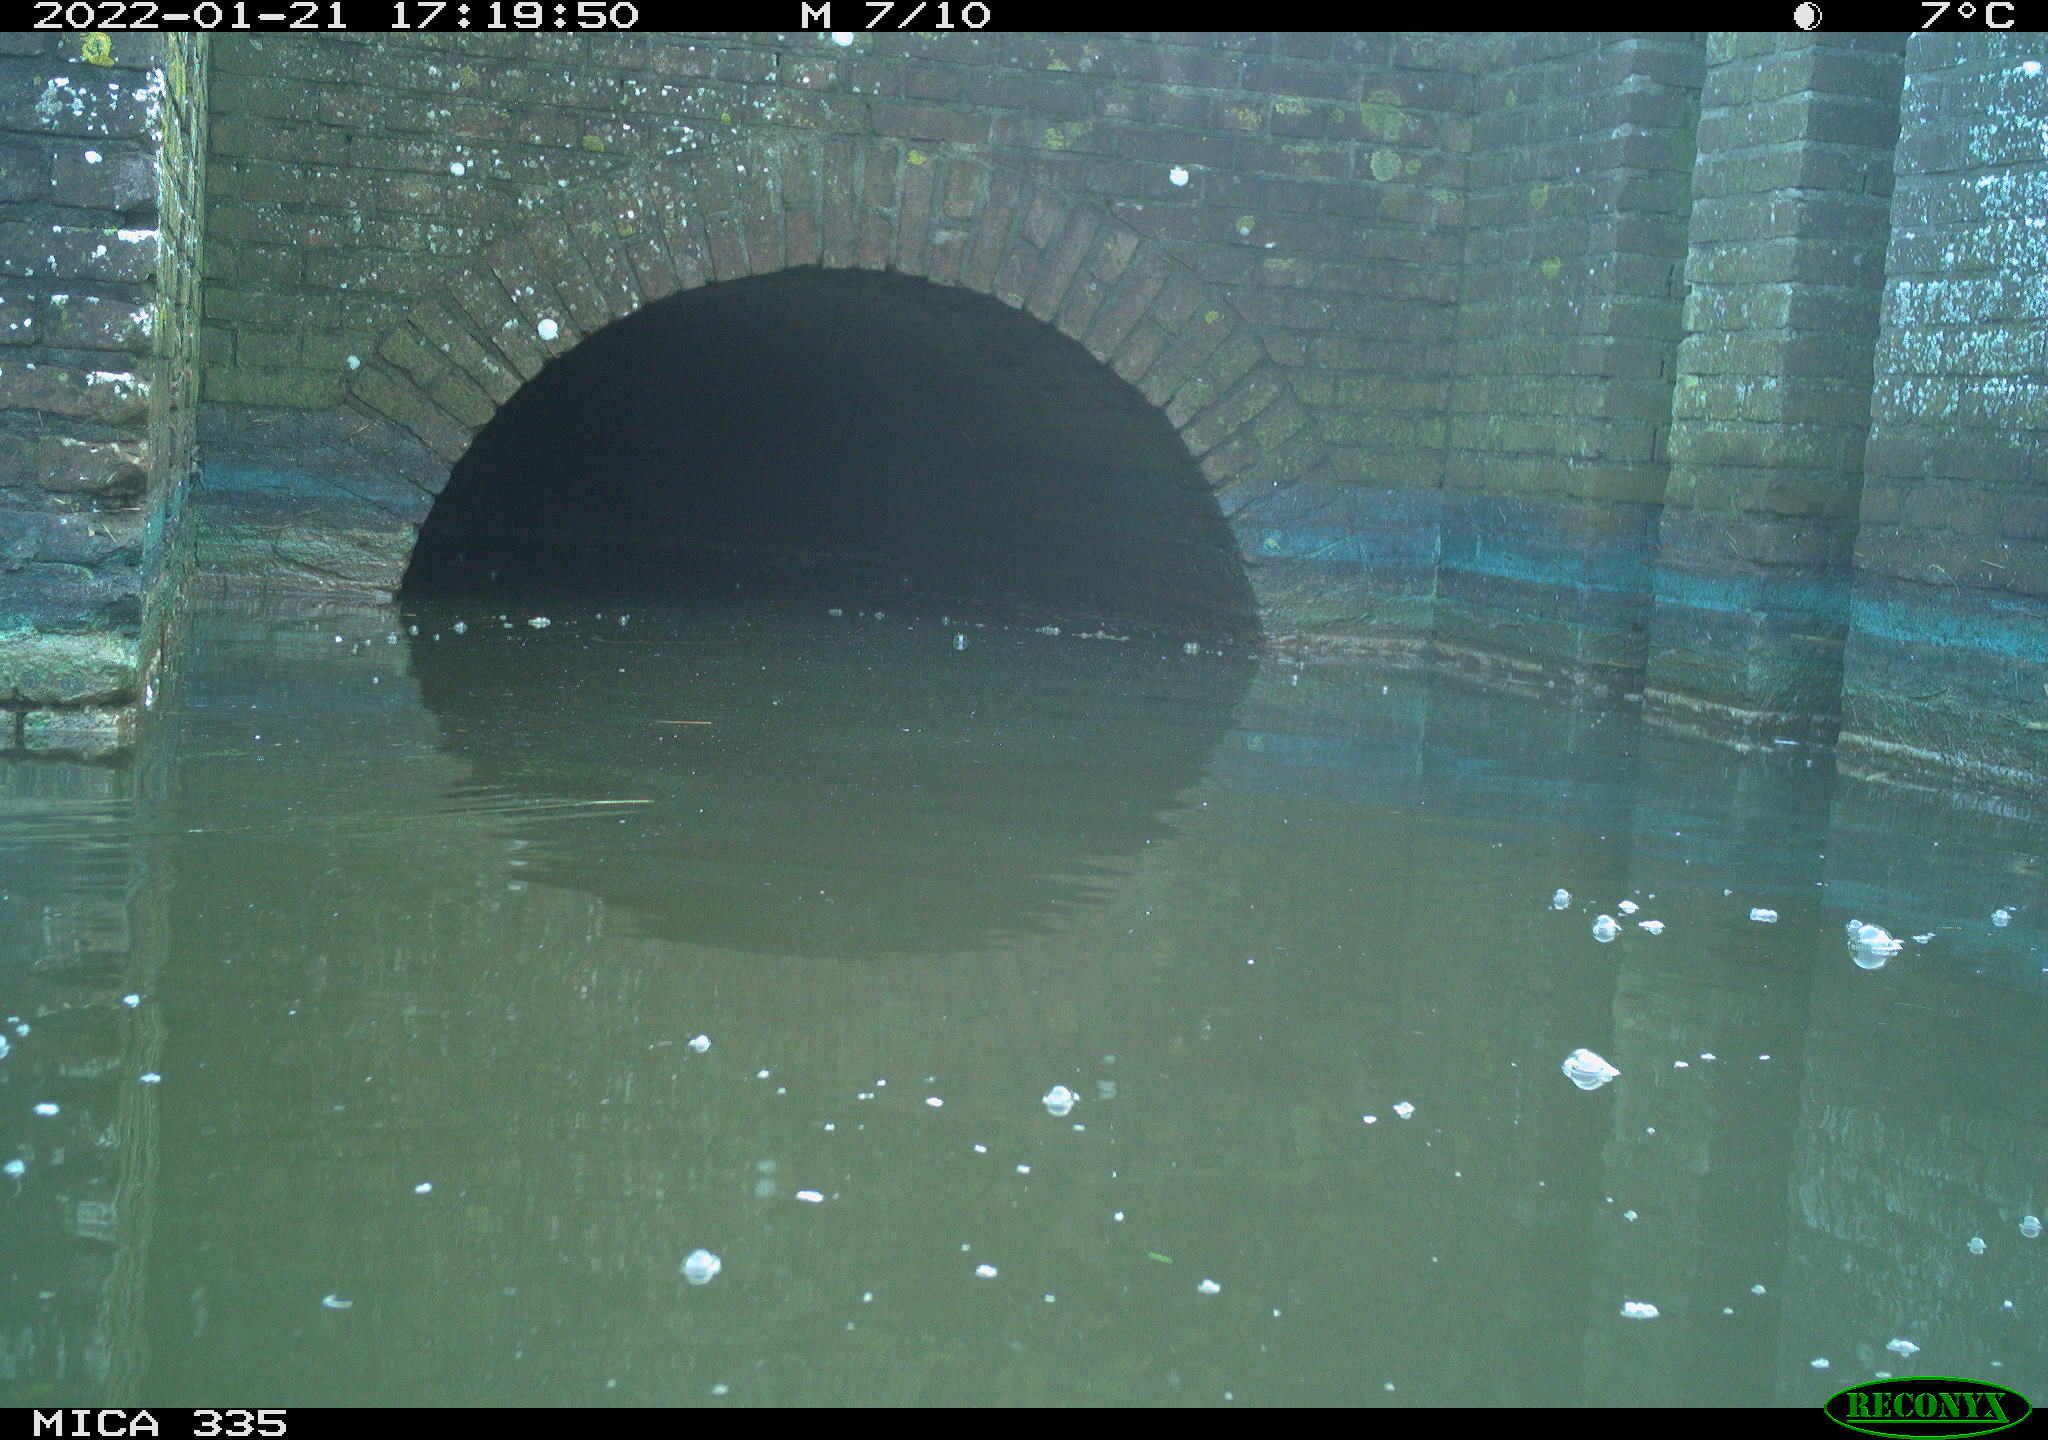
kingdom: Animalia
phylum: Chordata
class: Aves
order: Anseriformes
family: Anatidae
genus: Anas
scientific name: Anas platyrhynchos
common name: Mallard
